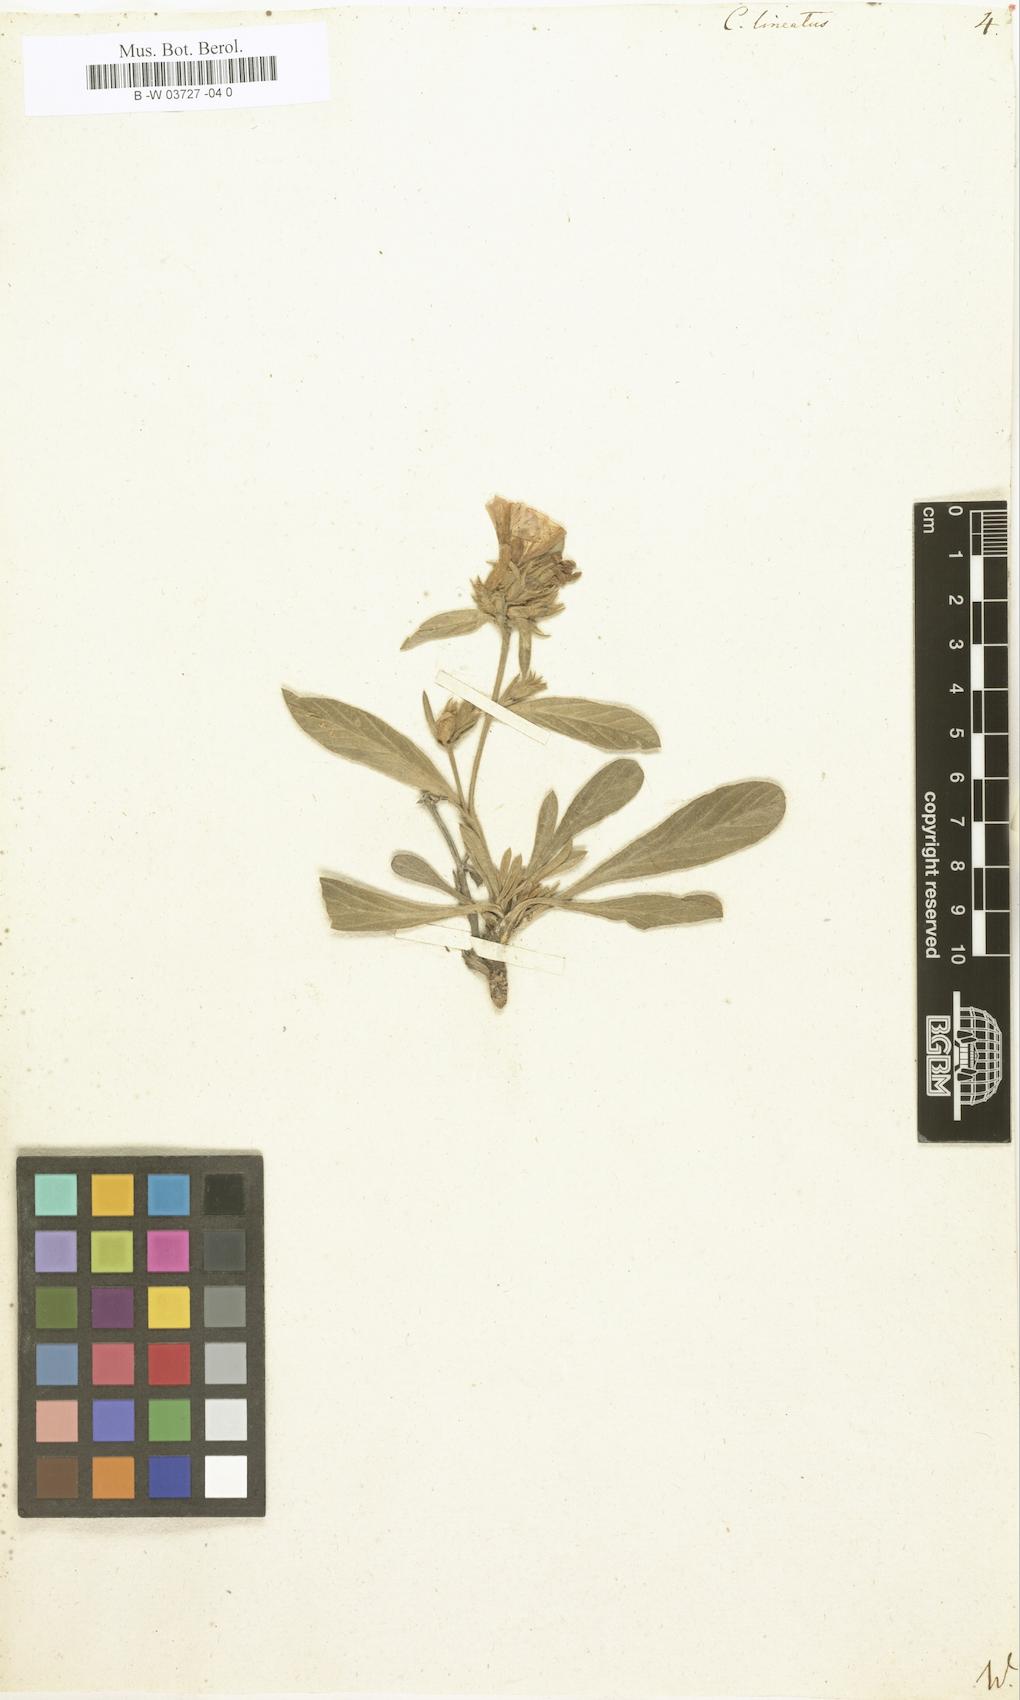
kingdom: Plantae
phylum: Tracheophyta
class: Magnoliopsida
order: Solanales
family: Convolvulaceae
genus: Convolvulus
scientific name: Convolvulus lineatus
